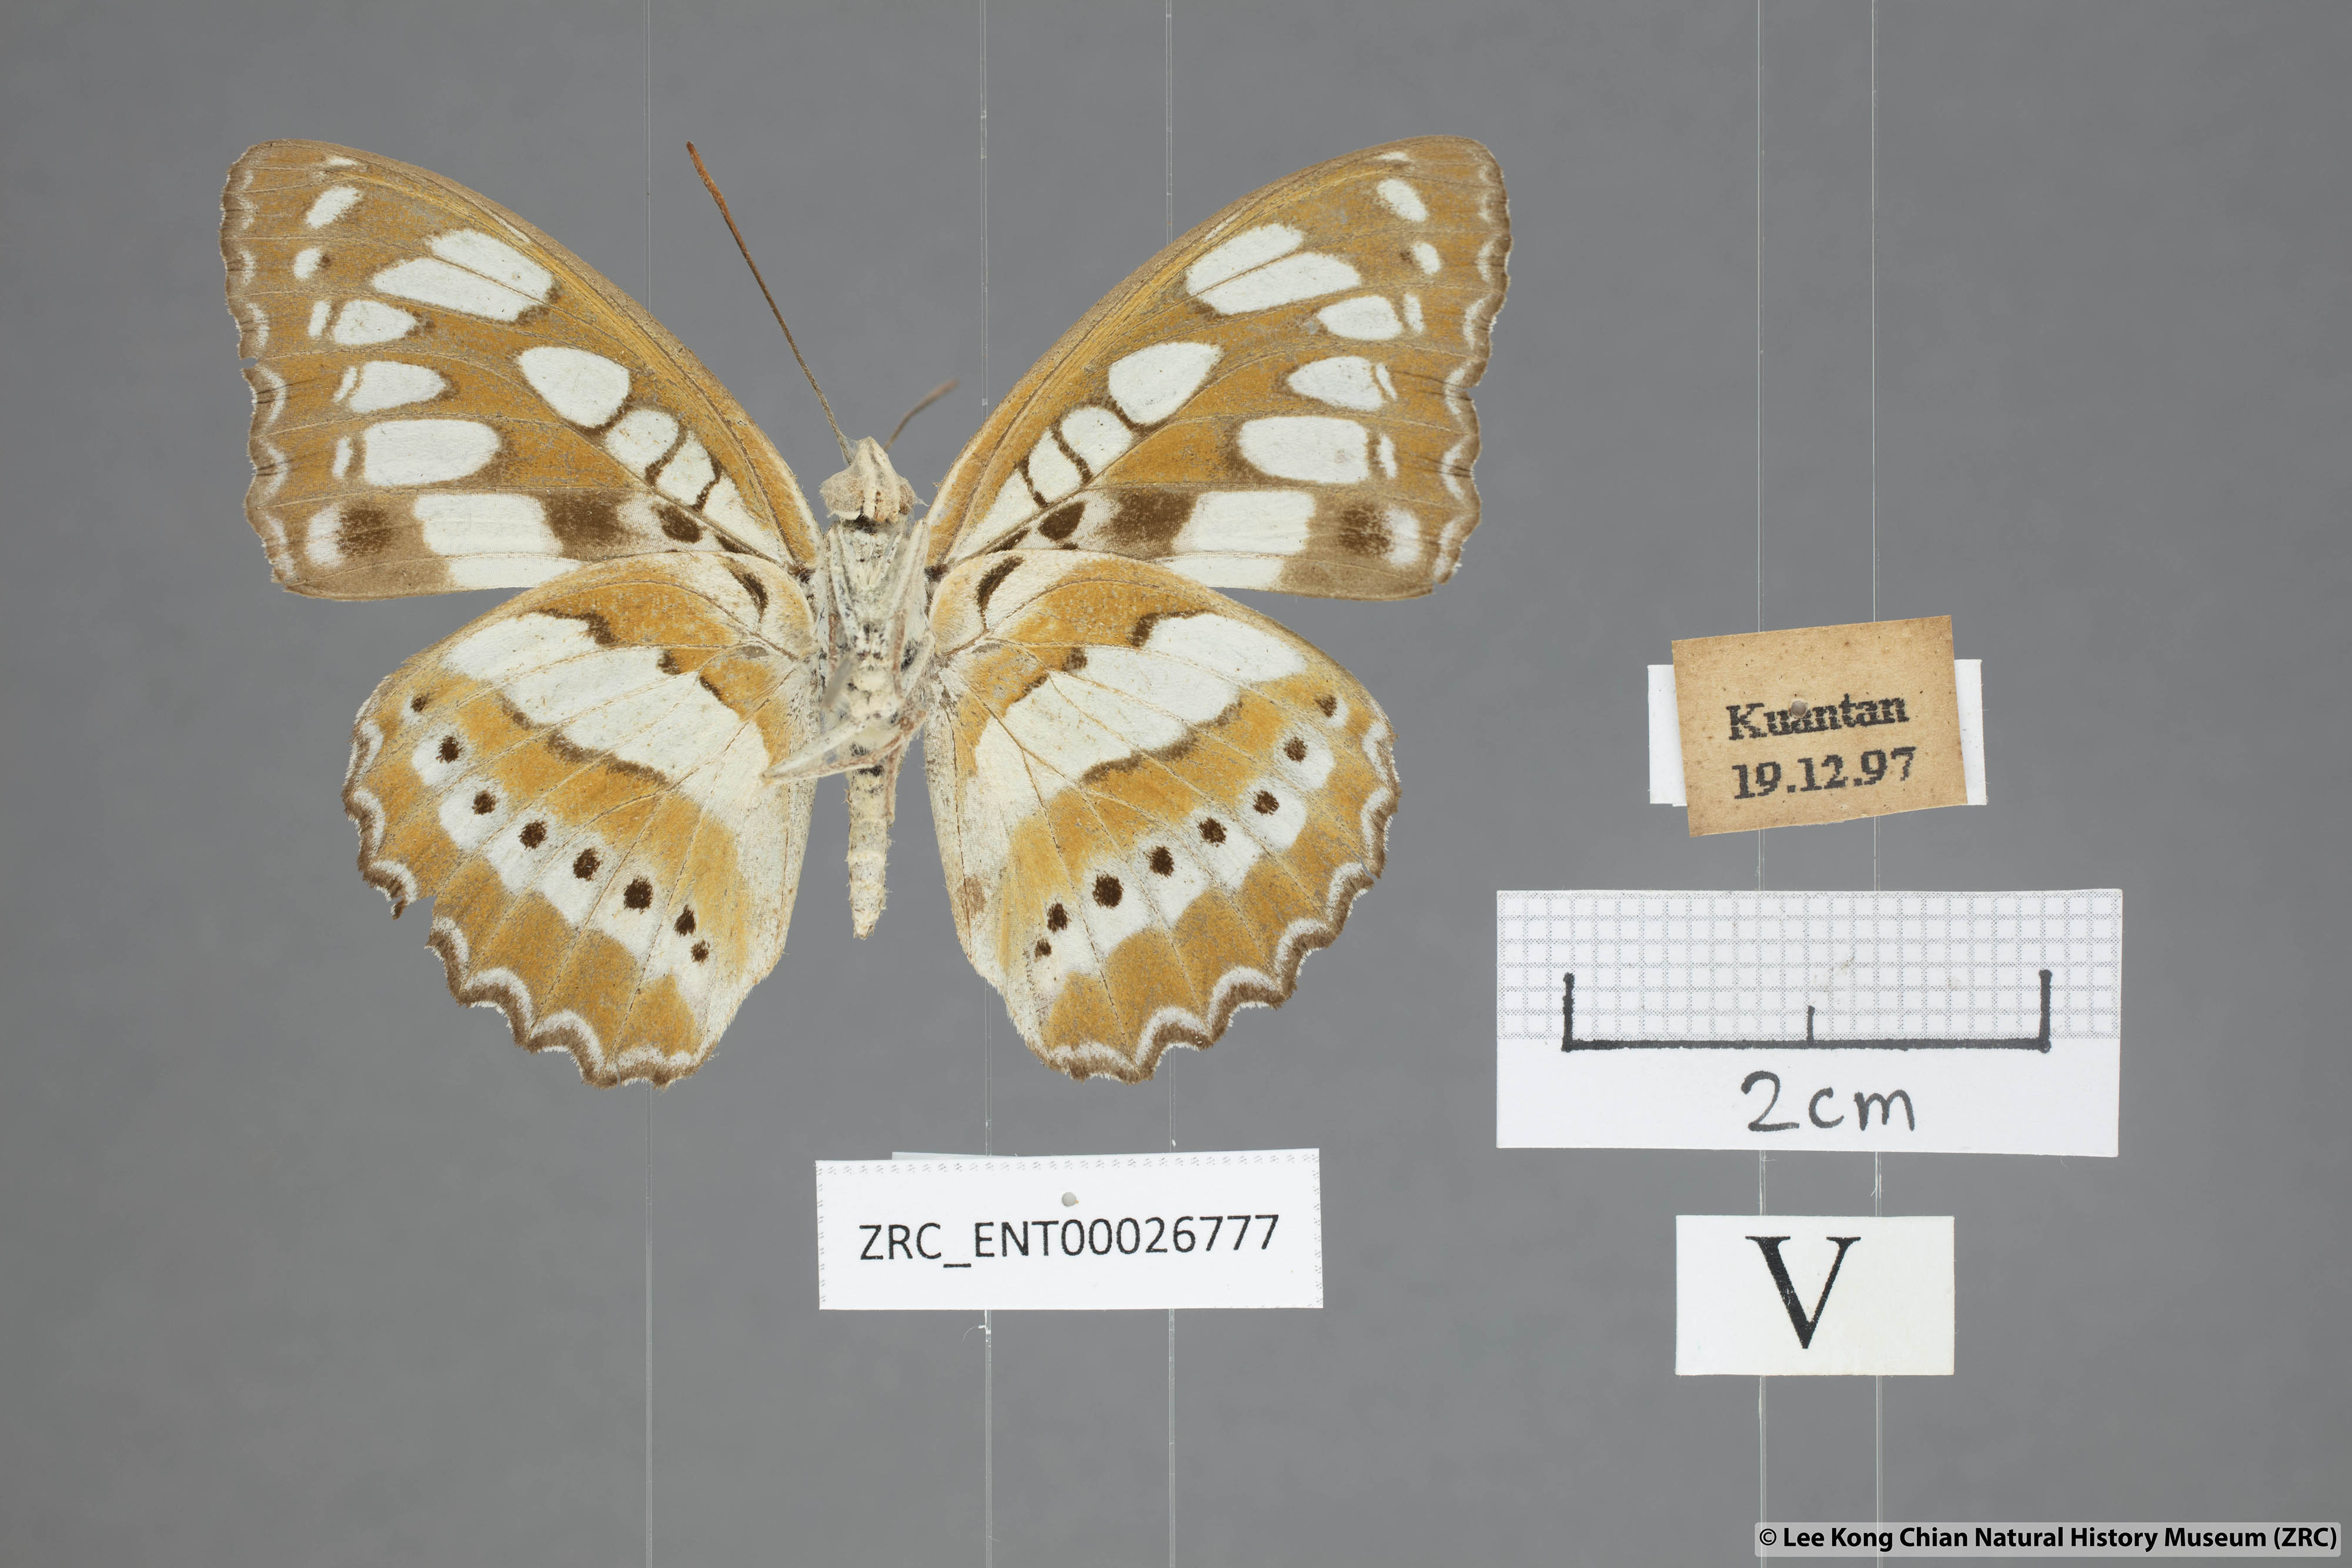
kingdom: Animalia
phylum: Arthropoda
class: Insecta
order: Lepidoptera
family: Nymphalidae
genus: Parathyma
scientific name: Parathyma perius
